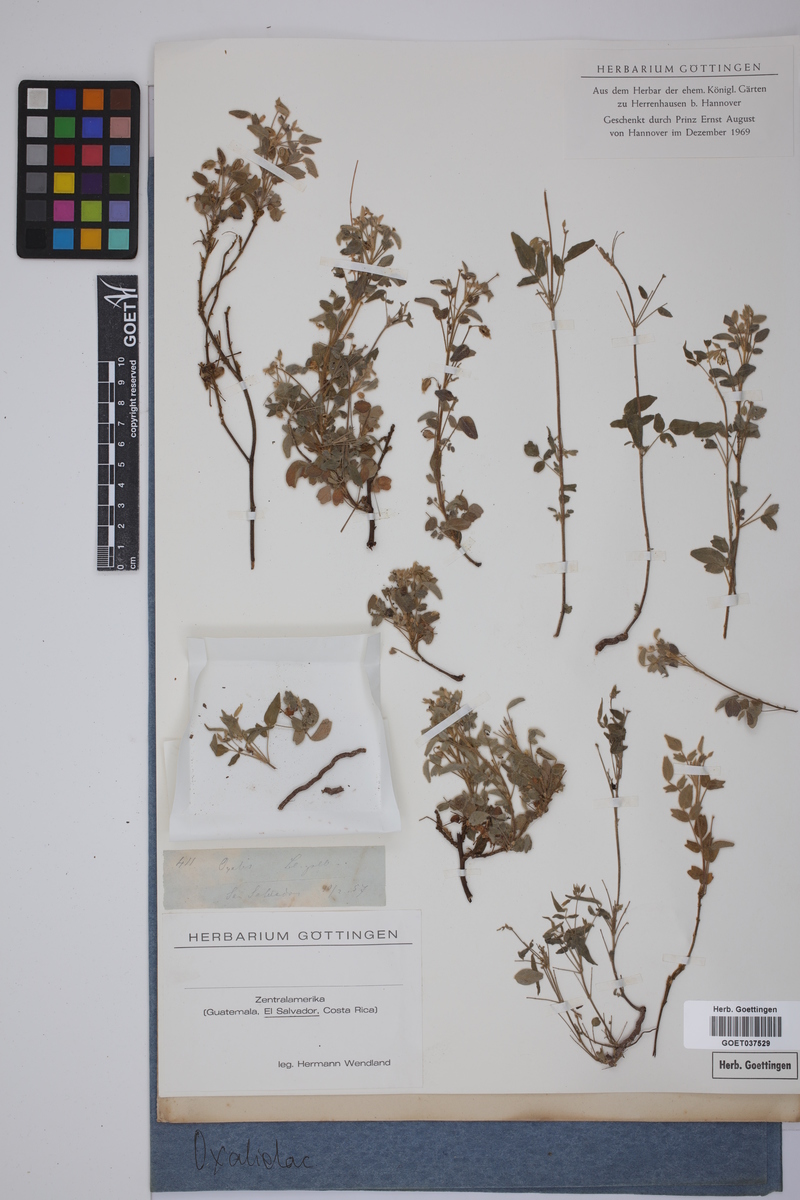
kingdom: Plantae
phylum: Tracheophyta
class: Magnoliopsida
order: Oxalidales
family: Oxalidaceae
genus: Oxalis
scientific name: Oxalis
